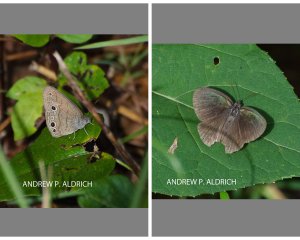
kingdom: Animalia
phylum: Arthropoda
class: Insecta
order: Lepidoptera
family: Nymphalidae
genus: Hermeuptychia
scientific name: Hermeuptychia hermes
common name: Carolina Satyr
